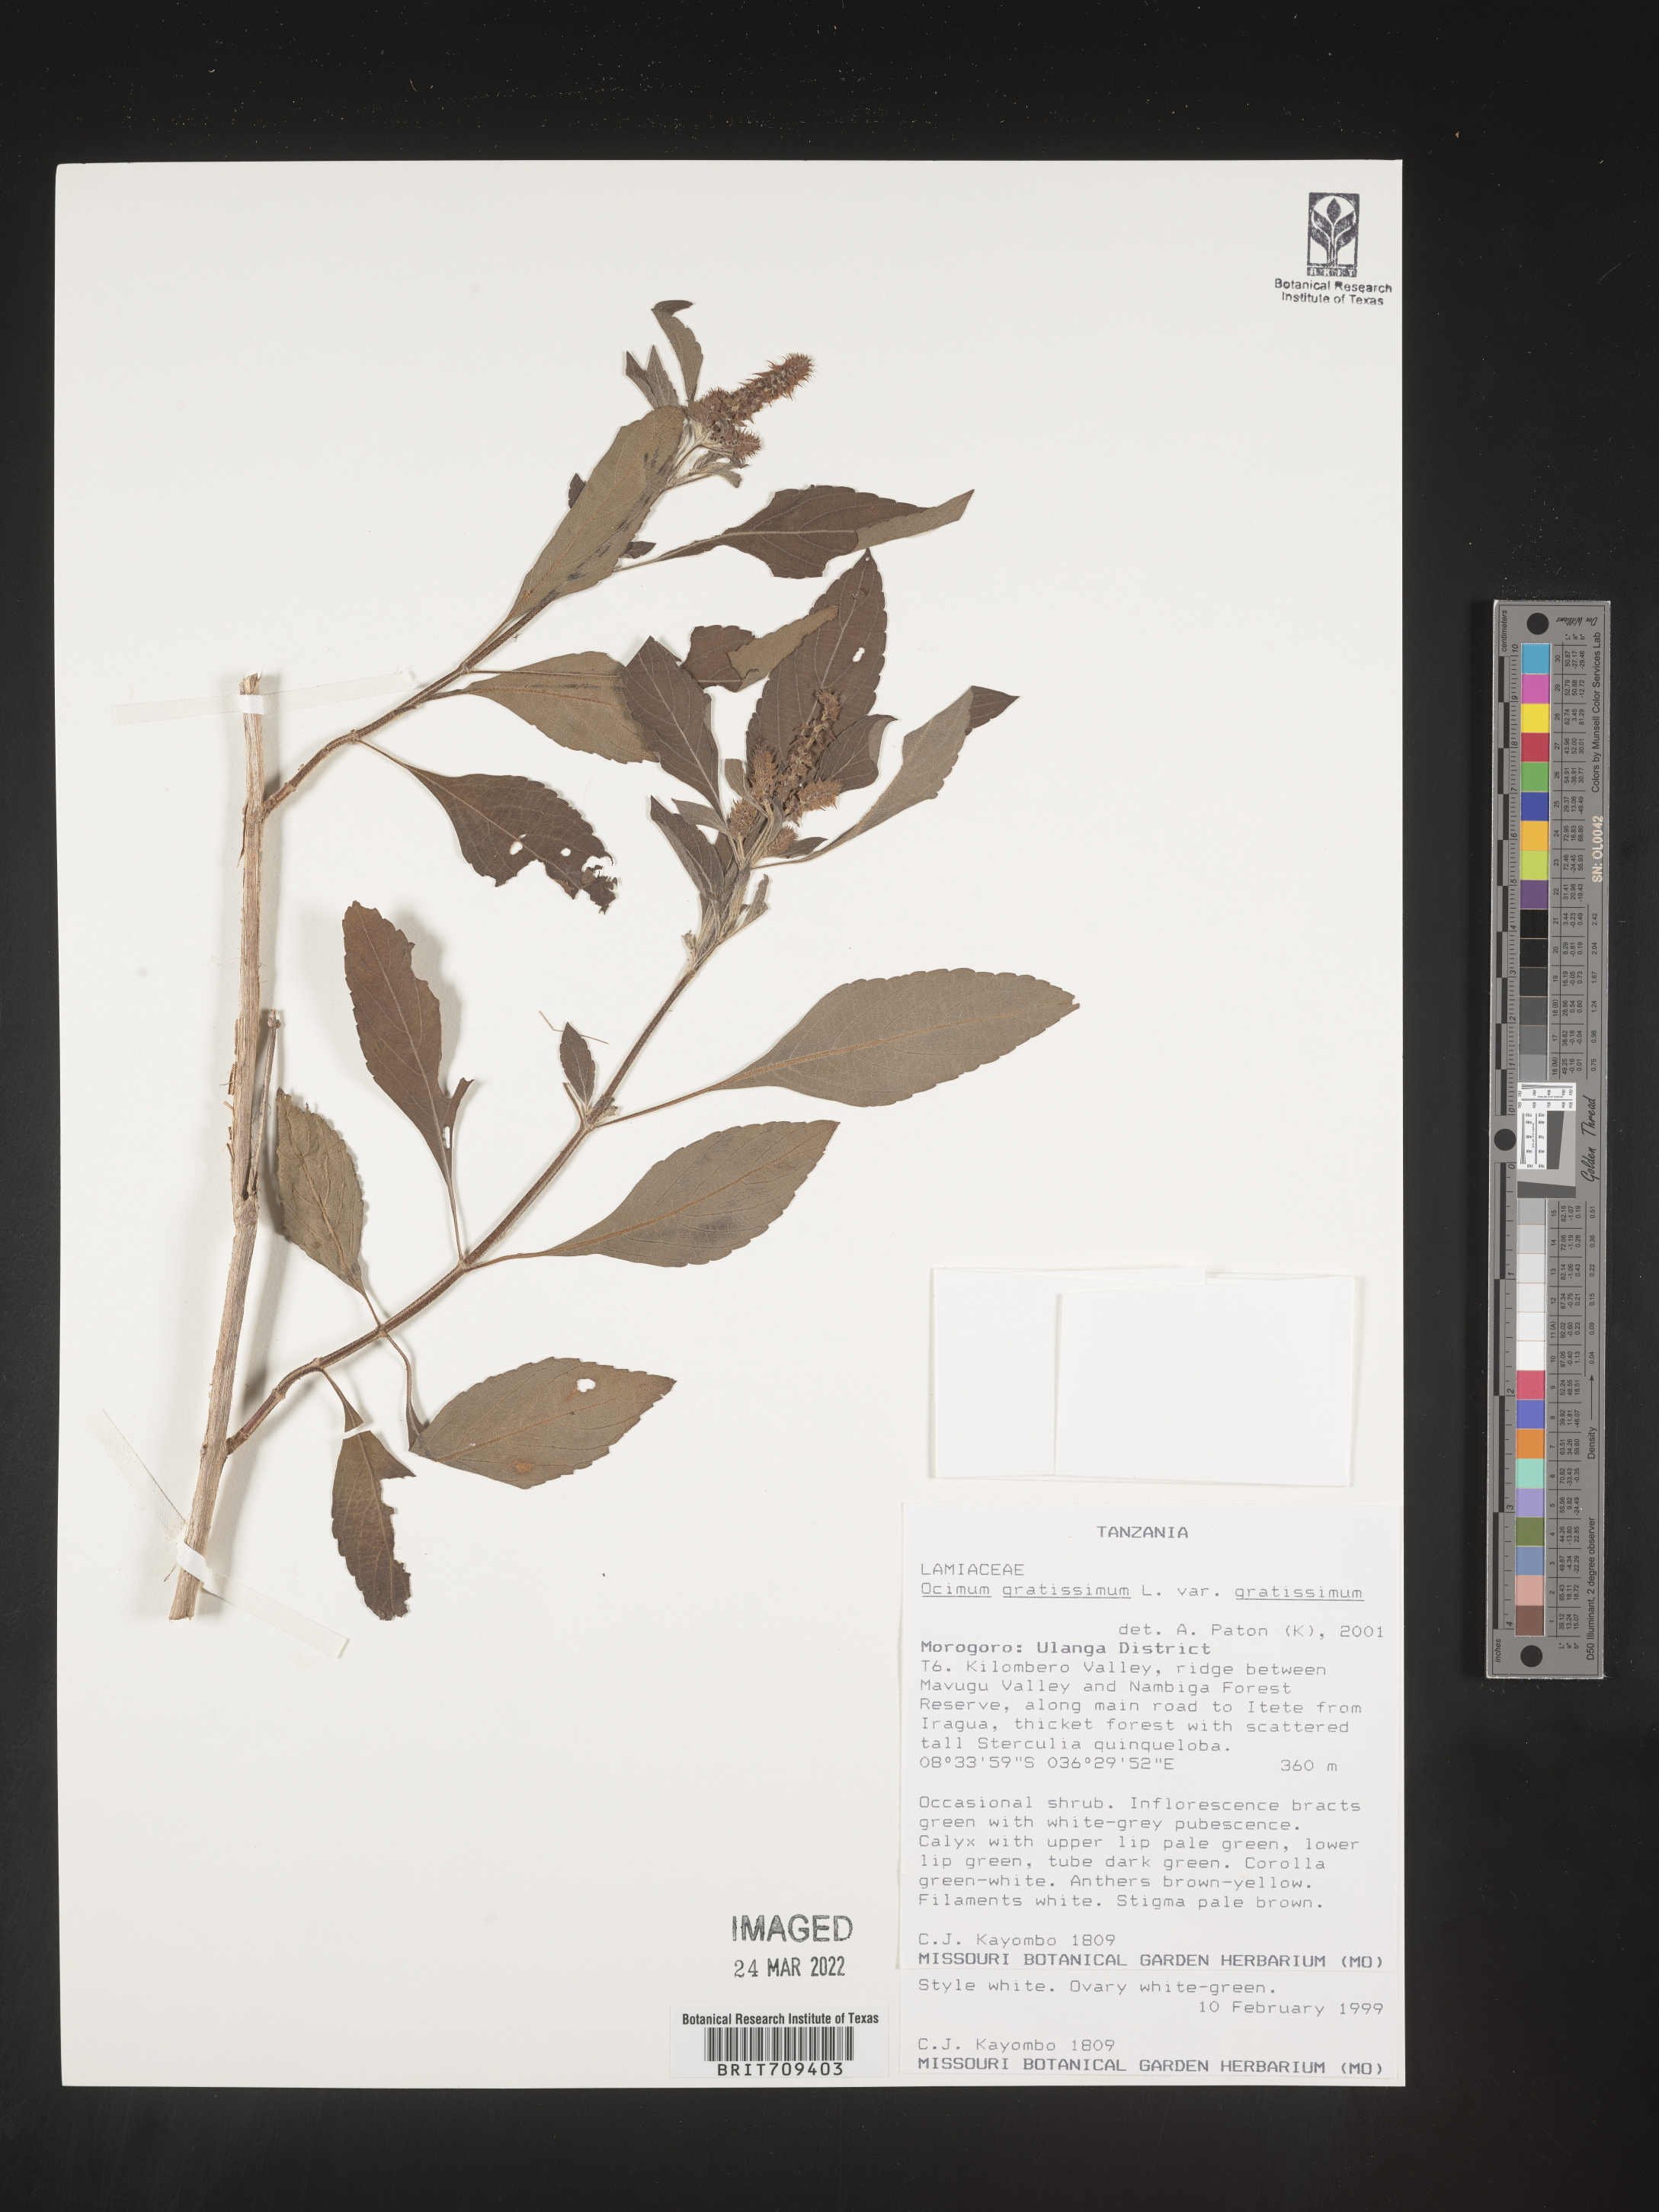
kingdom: Plantae
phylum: Tracheophyta
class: Magnoliopsida
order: Lamiales
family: Lamiaceae
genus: Ocimum
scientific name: Ocimum
